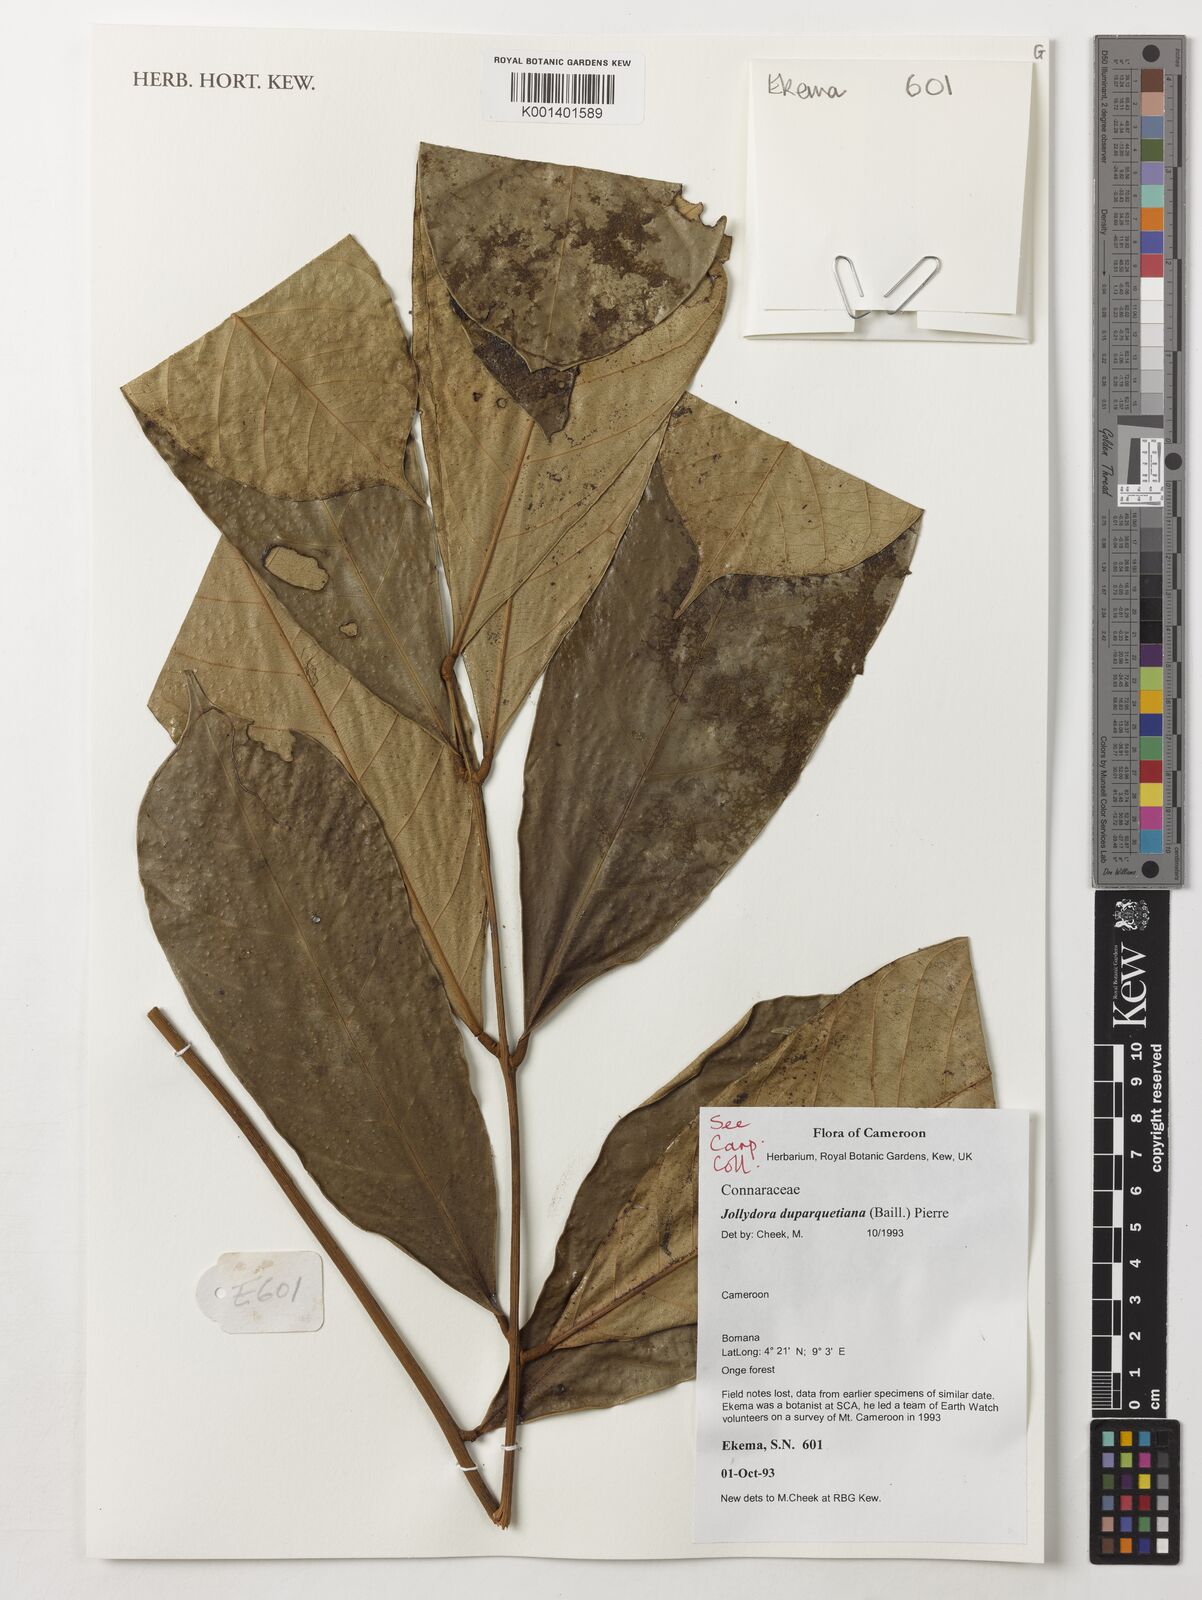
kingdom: Plantae
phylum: Tracheophyta
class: Magnoliopsida
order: Oxalidales
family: Connaraceae
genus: Jollydora
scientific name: Jollydora duparquetiana
